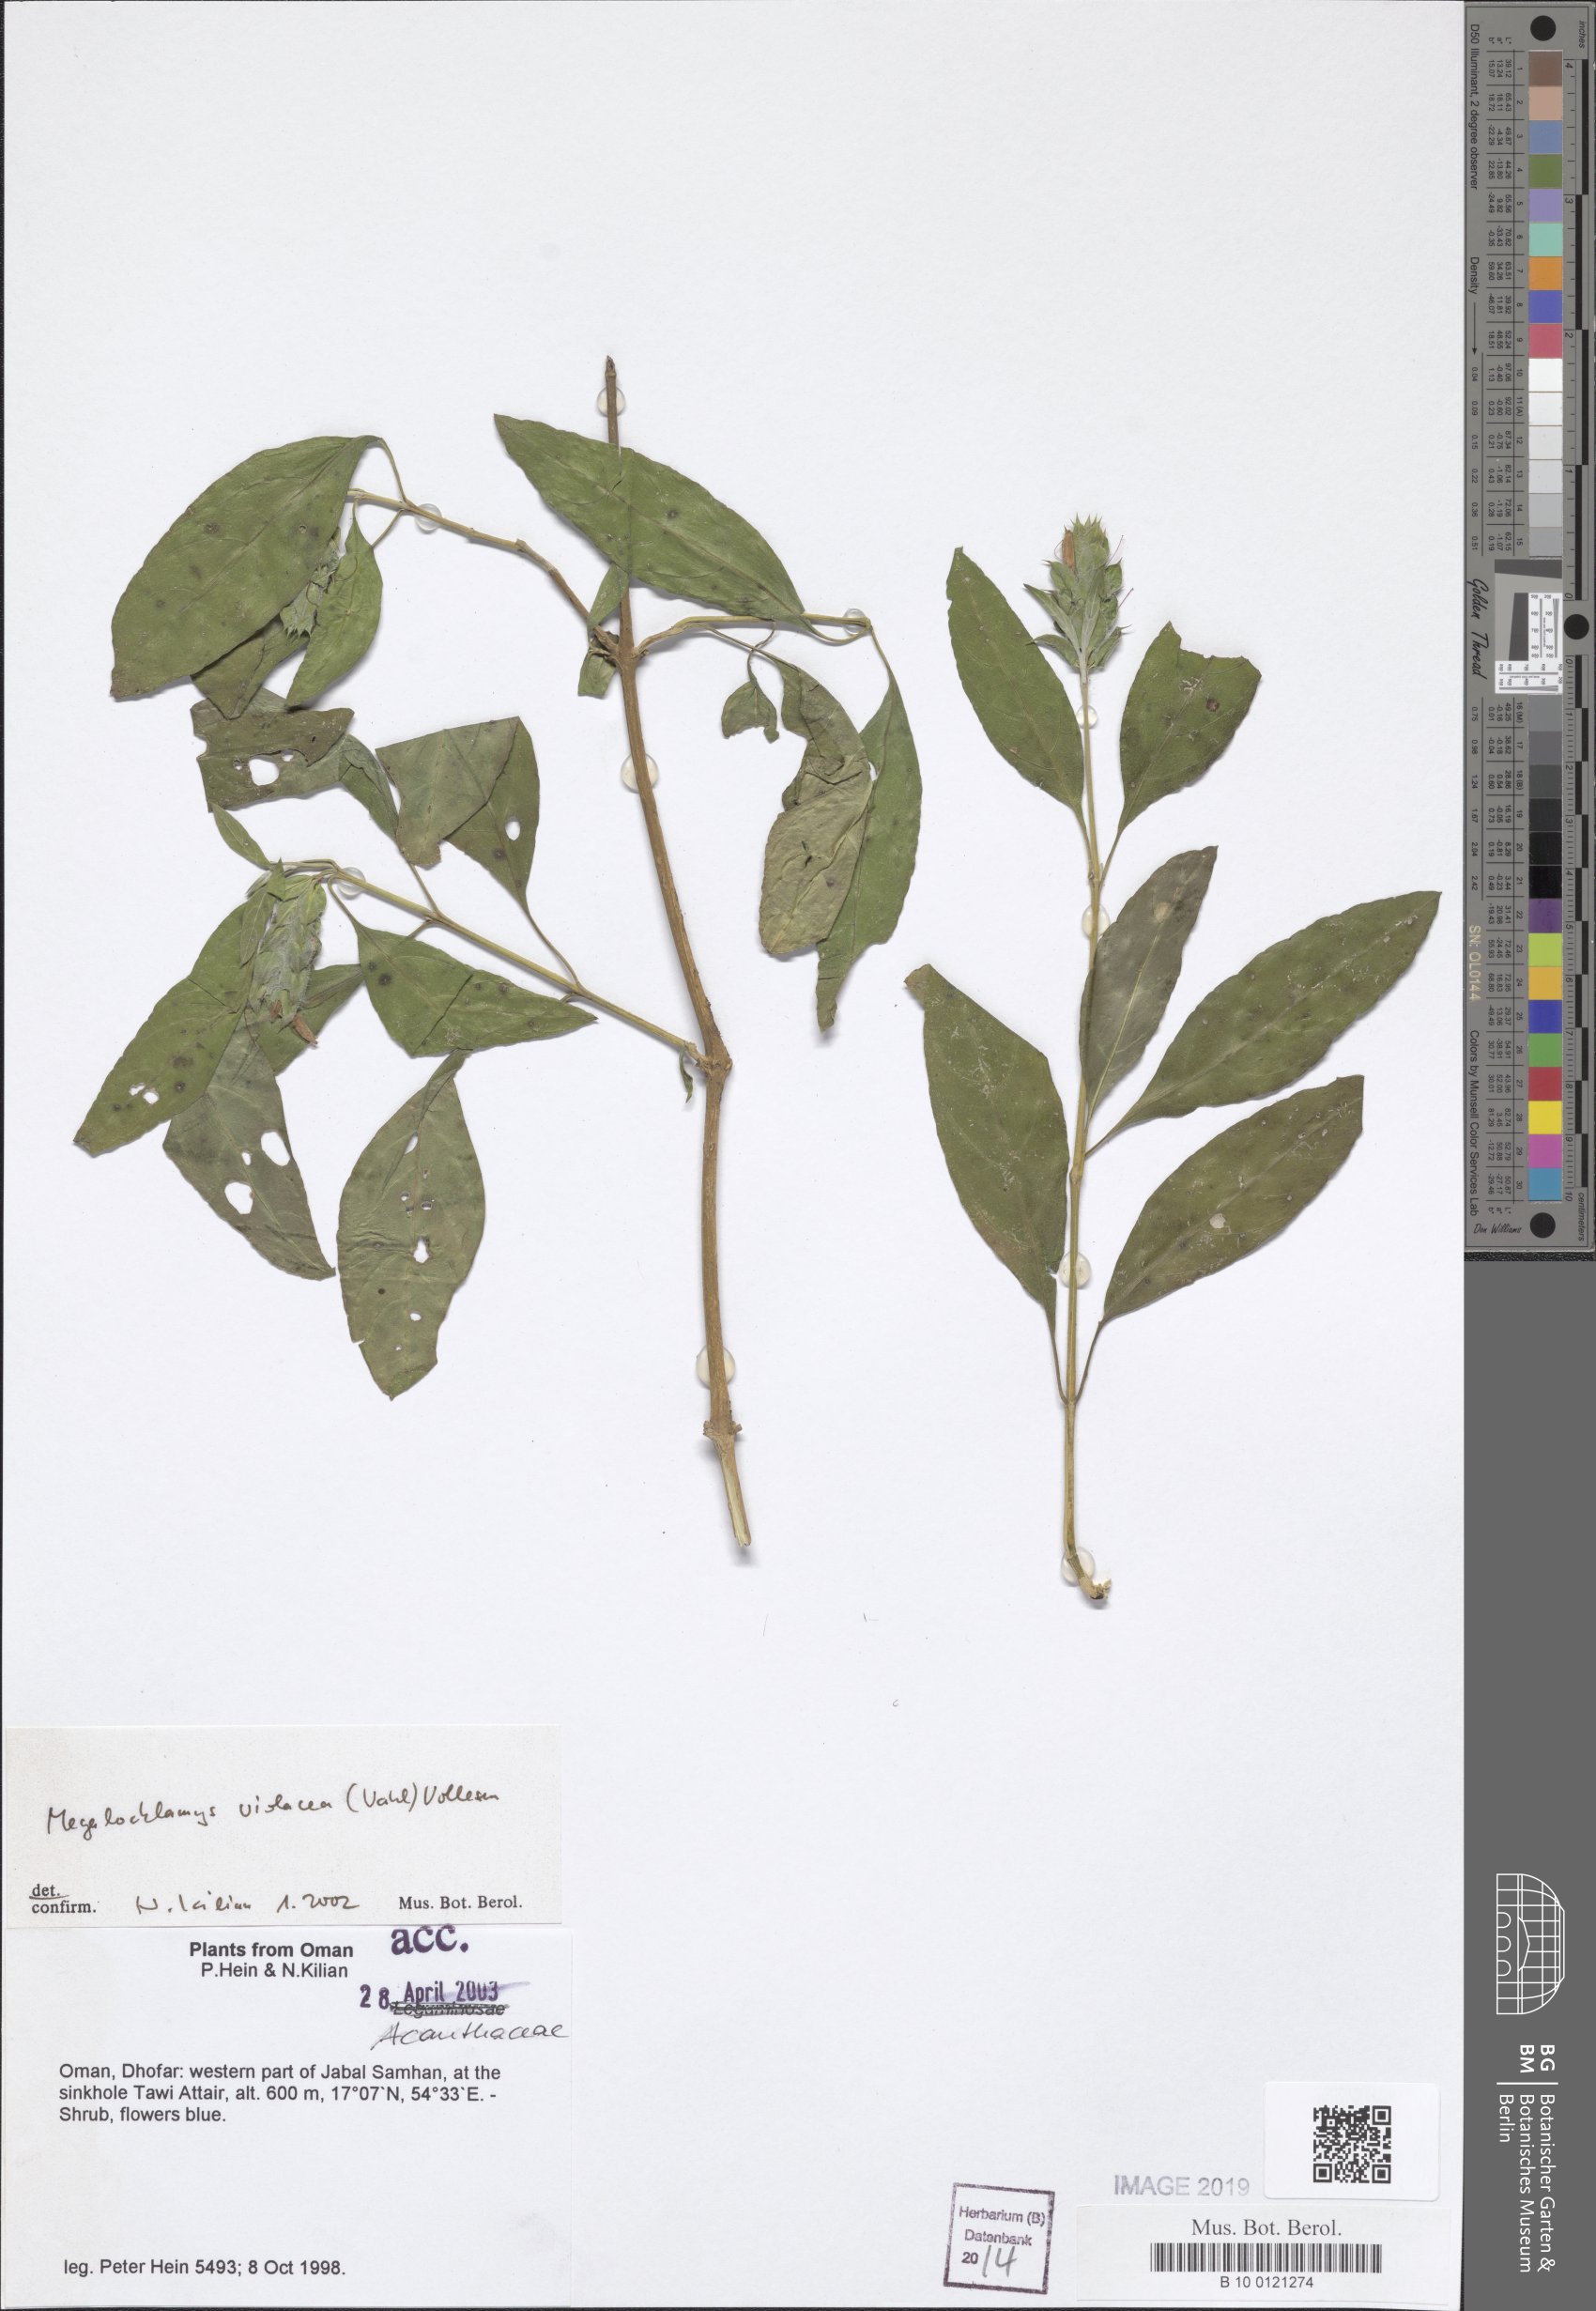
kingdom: Plantae
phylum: Tracheophyta
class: Magnoliopsida
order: Lamiales
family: Acanthaceae
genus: Megalochlamys
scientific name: Megalochlamys violacea
